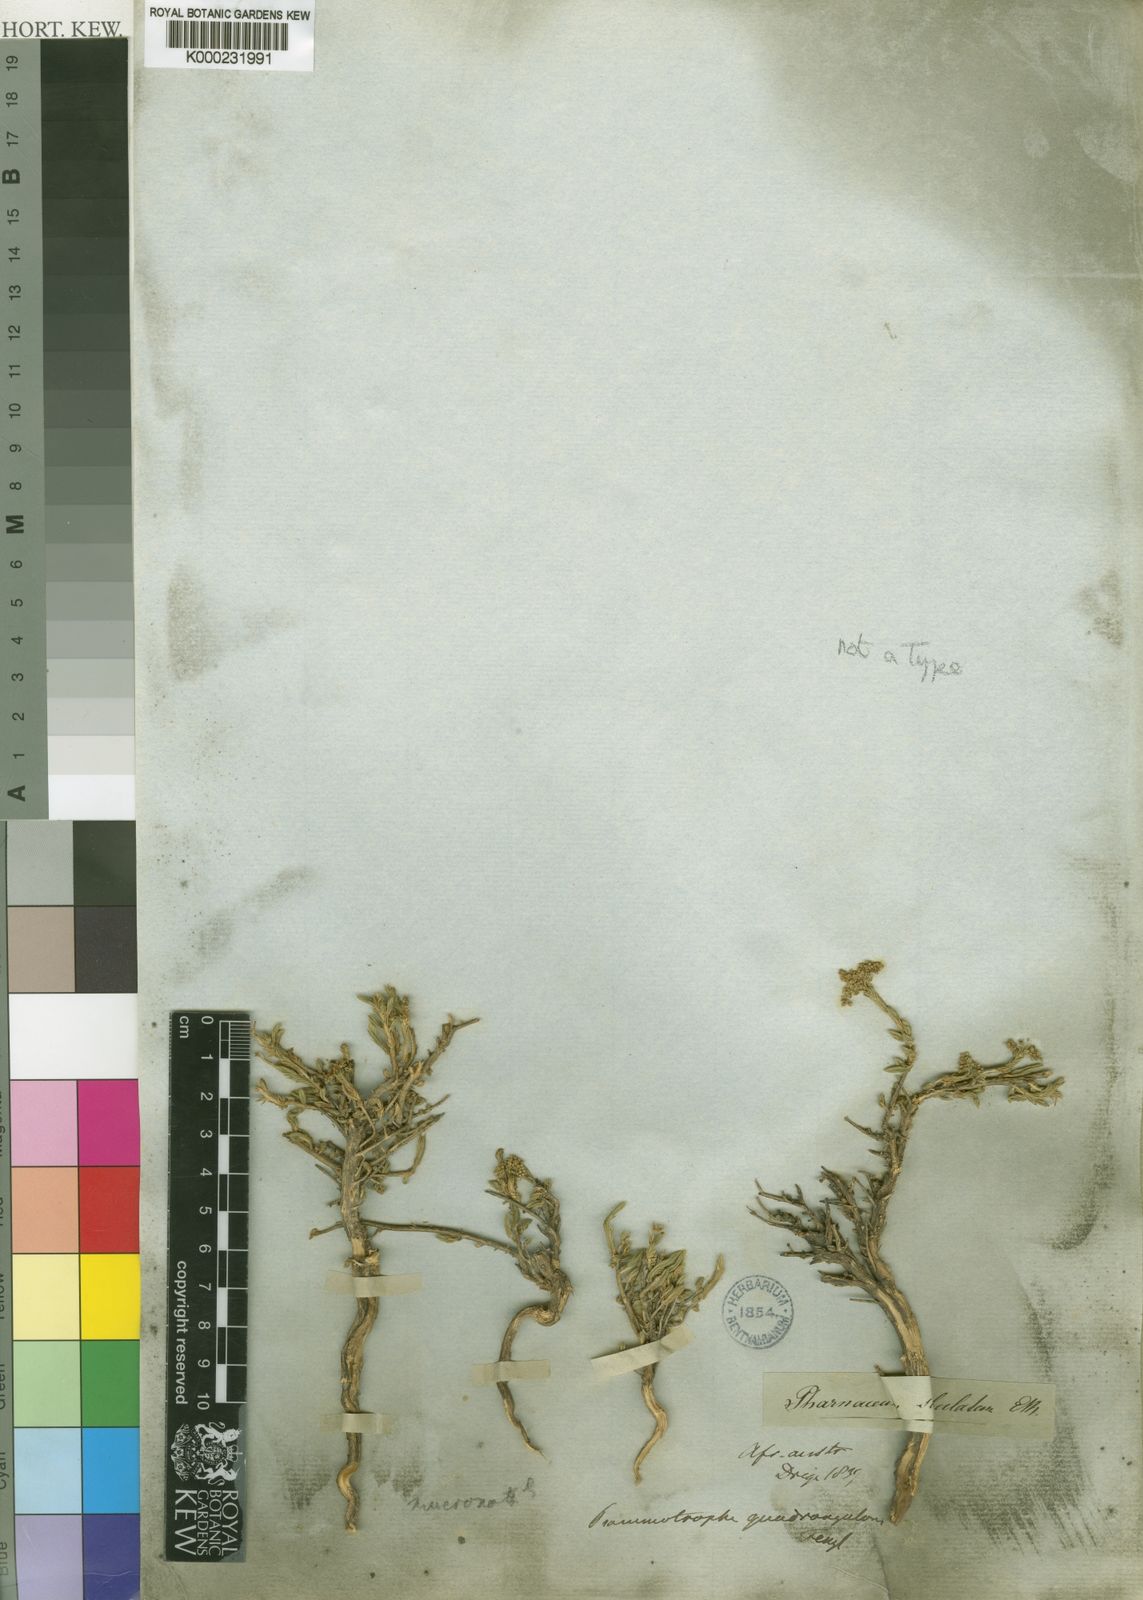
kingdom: Plantae
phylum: Tracheophyta
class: Magnoliopsida
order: Caryophyllales
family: Molluginaceae
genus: Psammotropha
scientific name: Psammotropha quadrangularis
